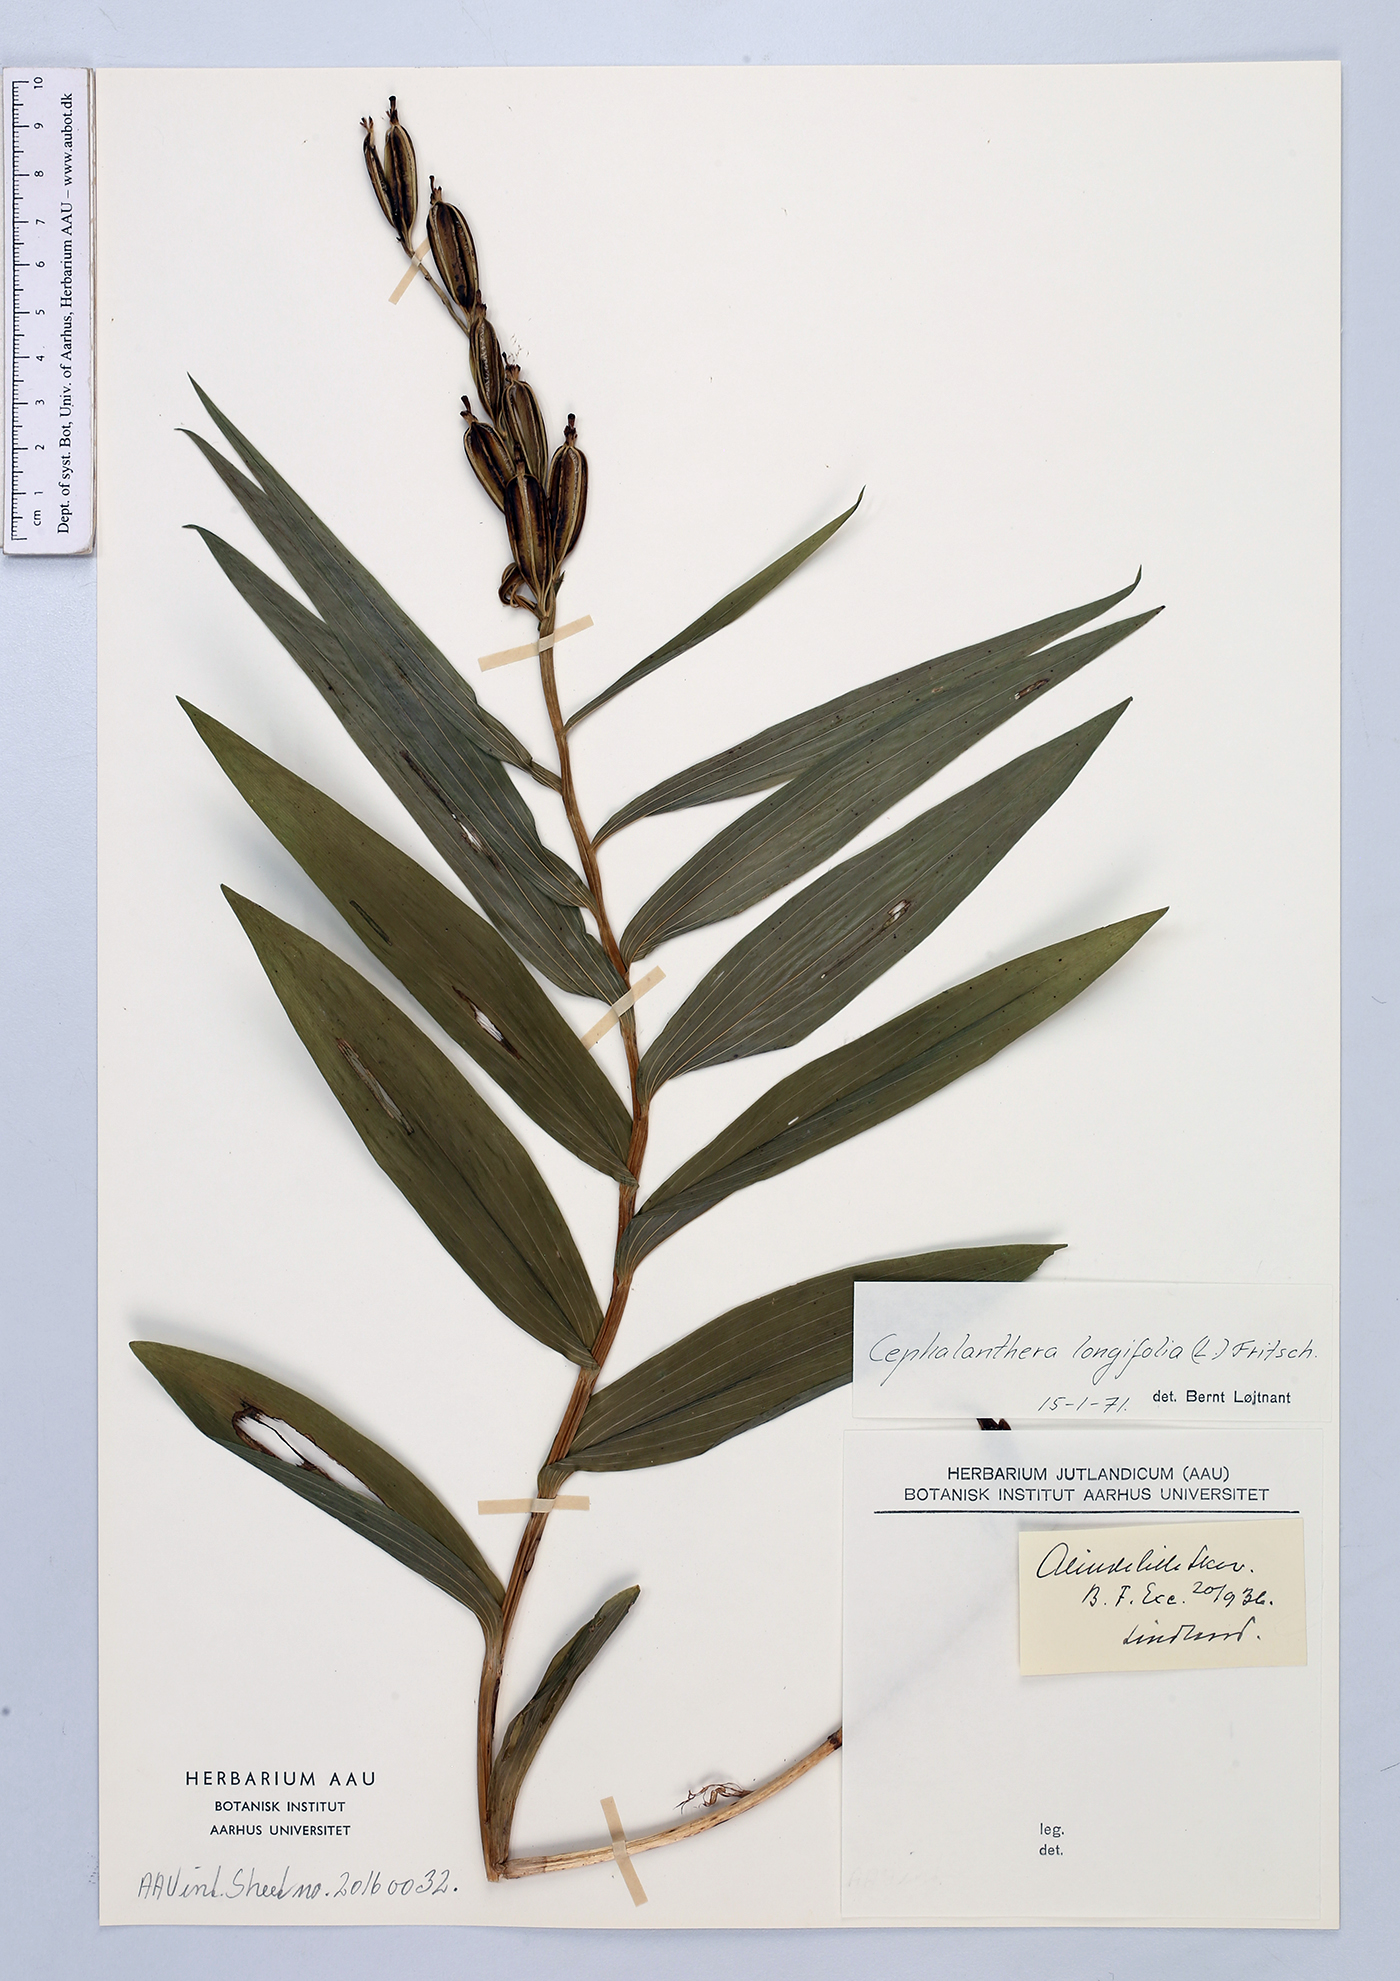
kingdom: Plantae
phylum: Tracheophyta
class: Liliopsida
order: Asparagales
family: Orchidaceae
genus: Cephalanthera
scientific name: Cephalanthera longifolia
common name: Narrow-leaved helleborine
